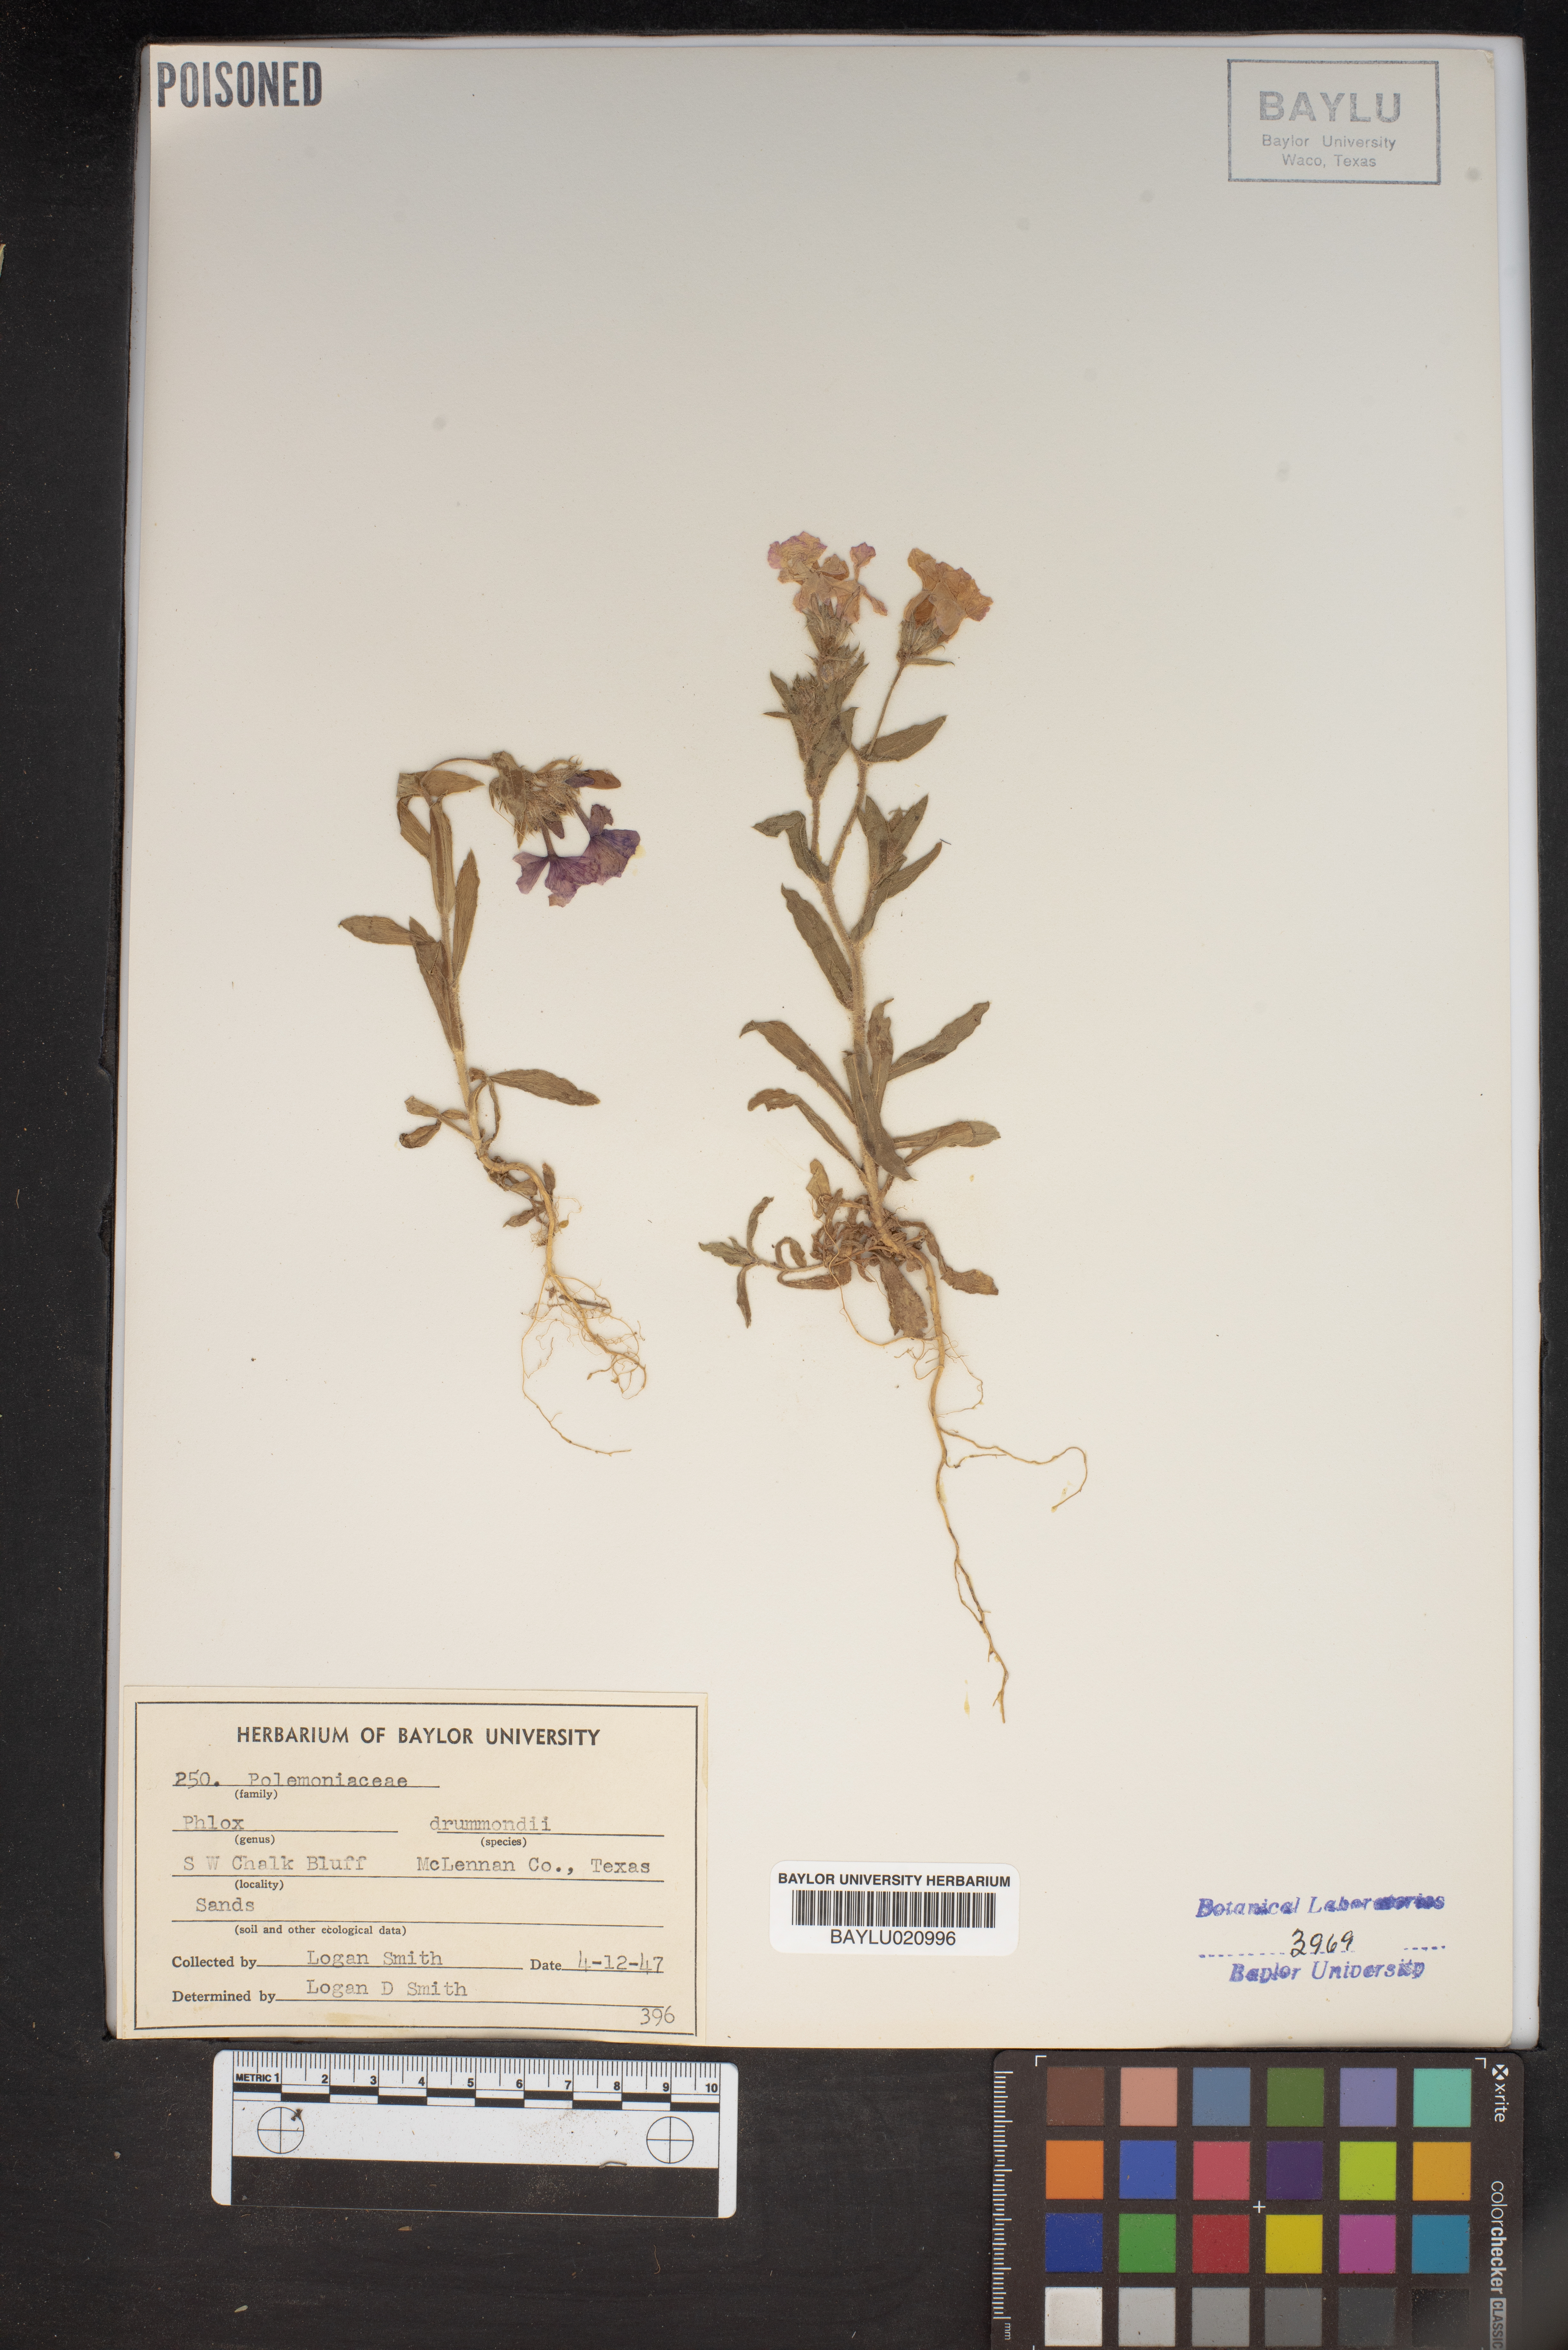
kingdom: Plantae
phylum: Tracheophyta
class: Magnoliopsida
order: Ericales
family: Polemoniaceae
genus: Phlox
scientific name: Phlox drummondii
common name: Drummond's phlox
